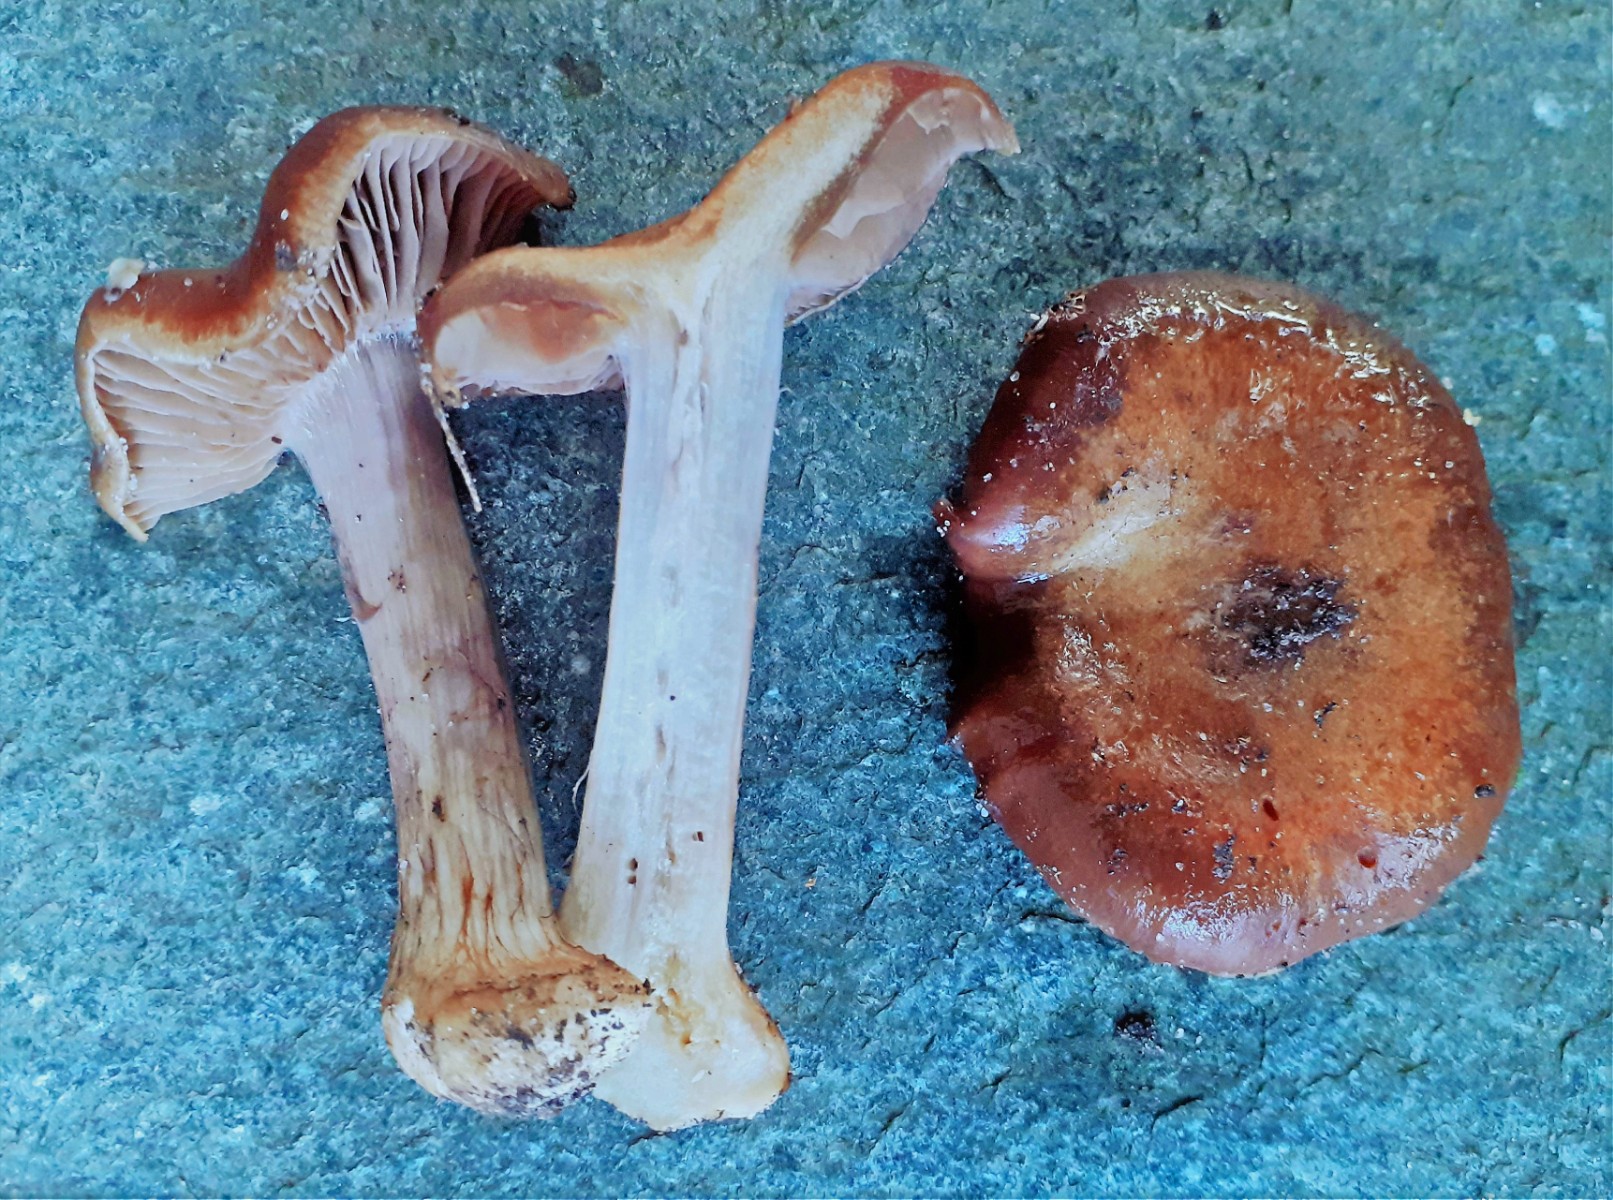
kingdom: Fungi
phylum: Basidiomycota
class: Agaricomycetes
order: Agaricales
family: Cortinariaceae
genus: Thaxterogaster
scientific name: Thaxterogaster sphagnophilus
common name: vandplettet slørhat
